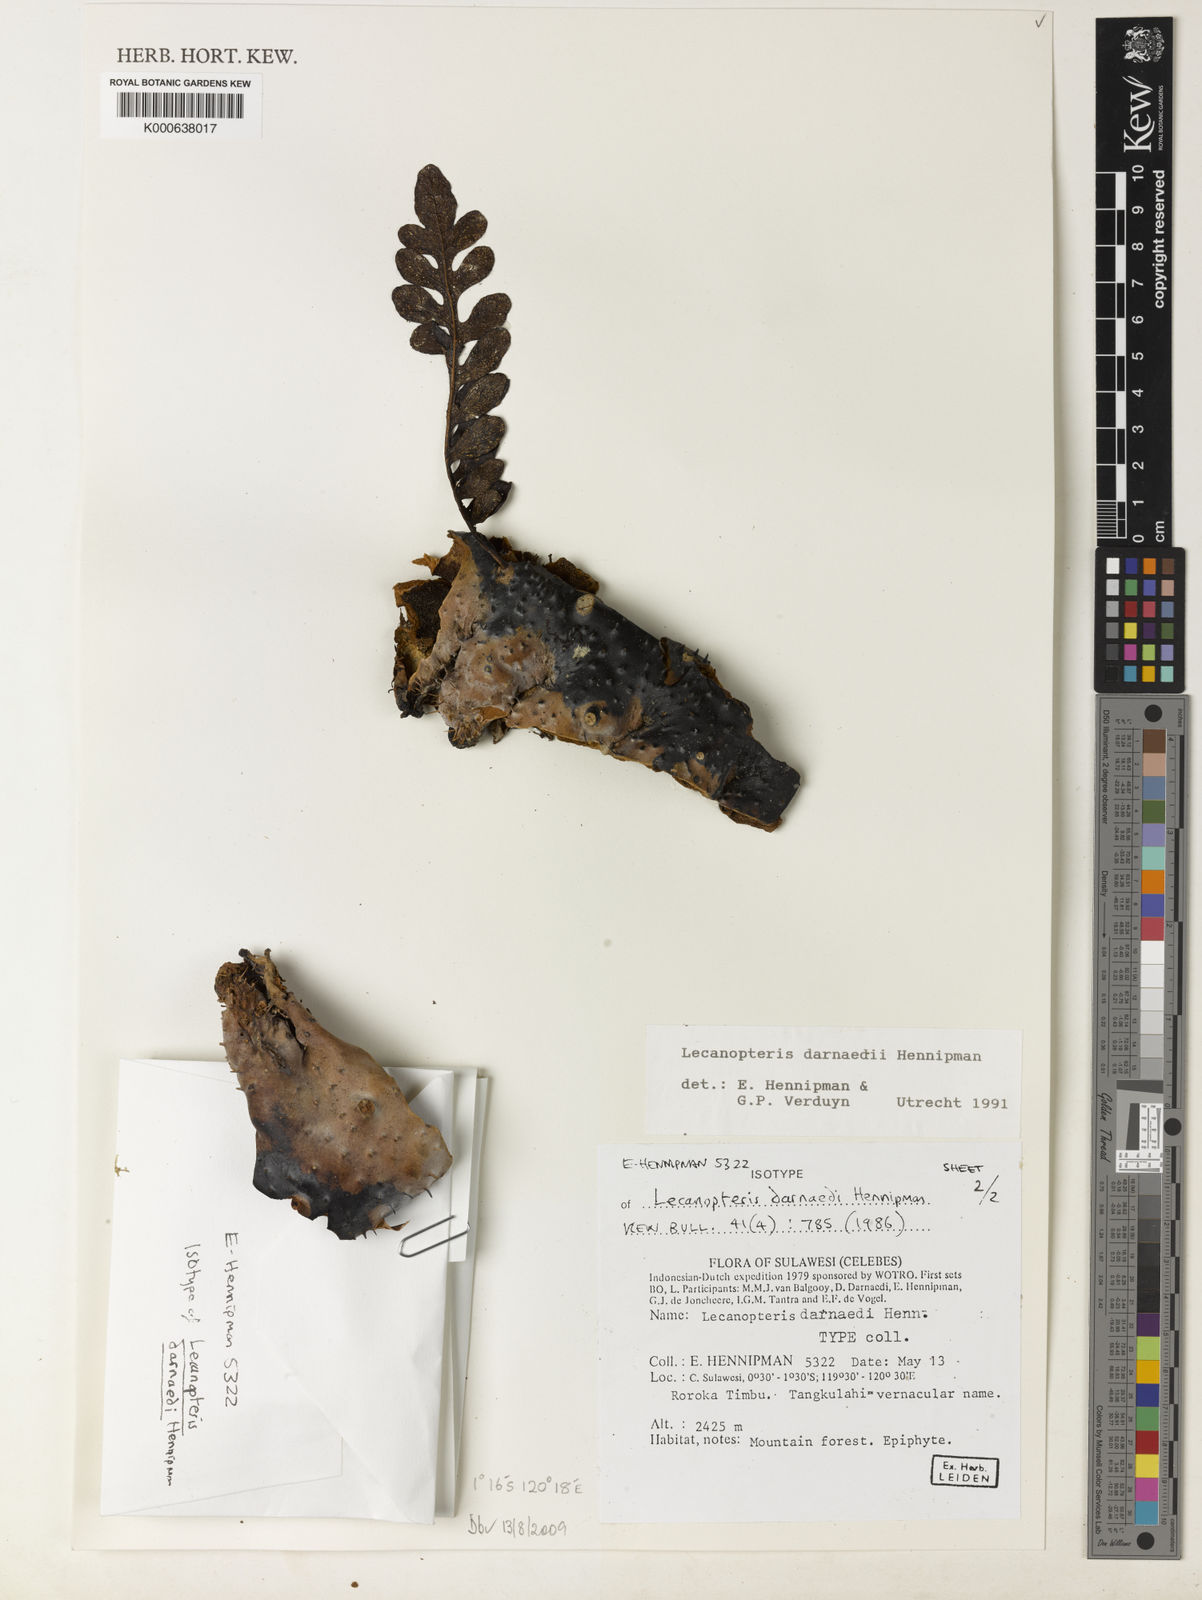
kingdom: Plantae
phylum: Tracheophyta
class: Polypodiopsida
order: Polypodiales
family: Polypodiaceae
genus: Lecanopteris
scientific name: Lecanopteris darnaedii
